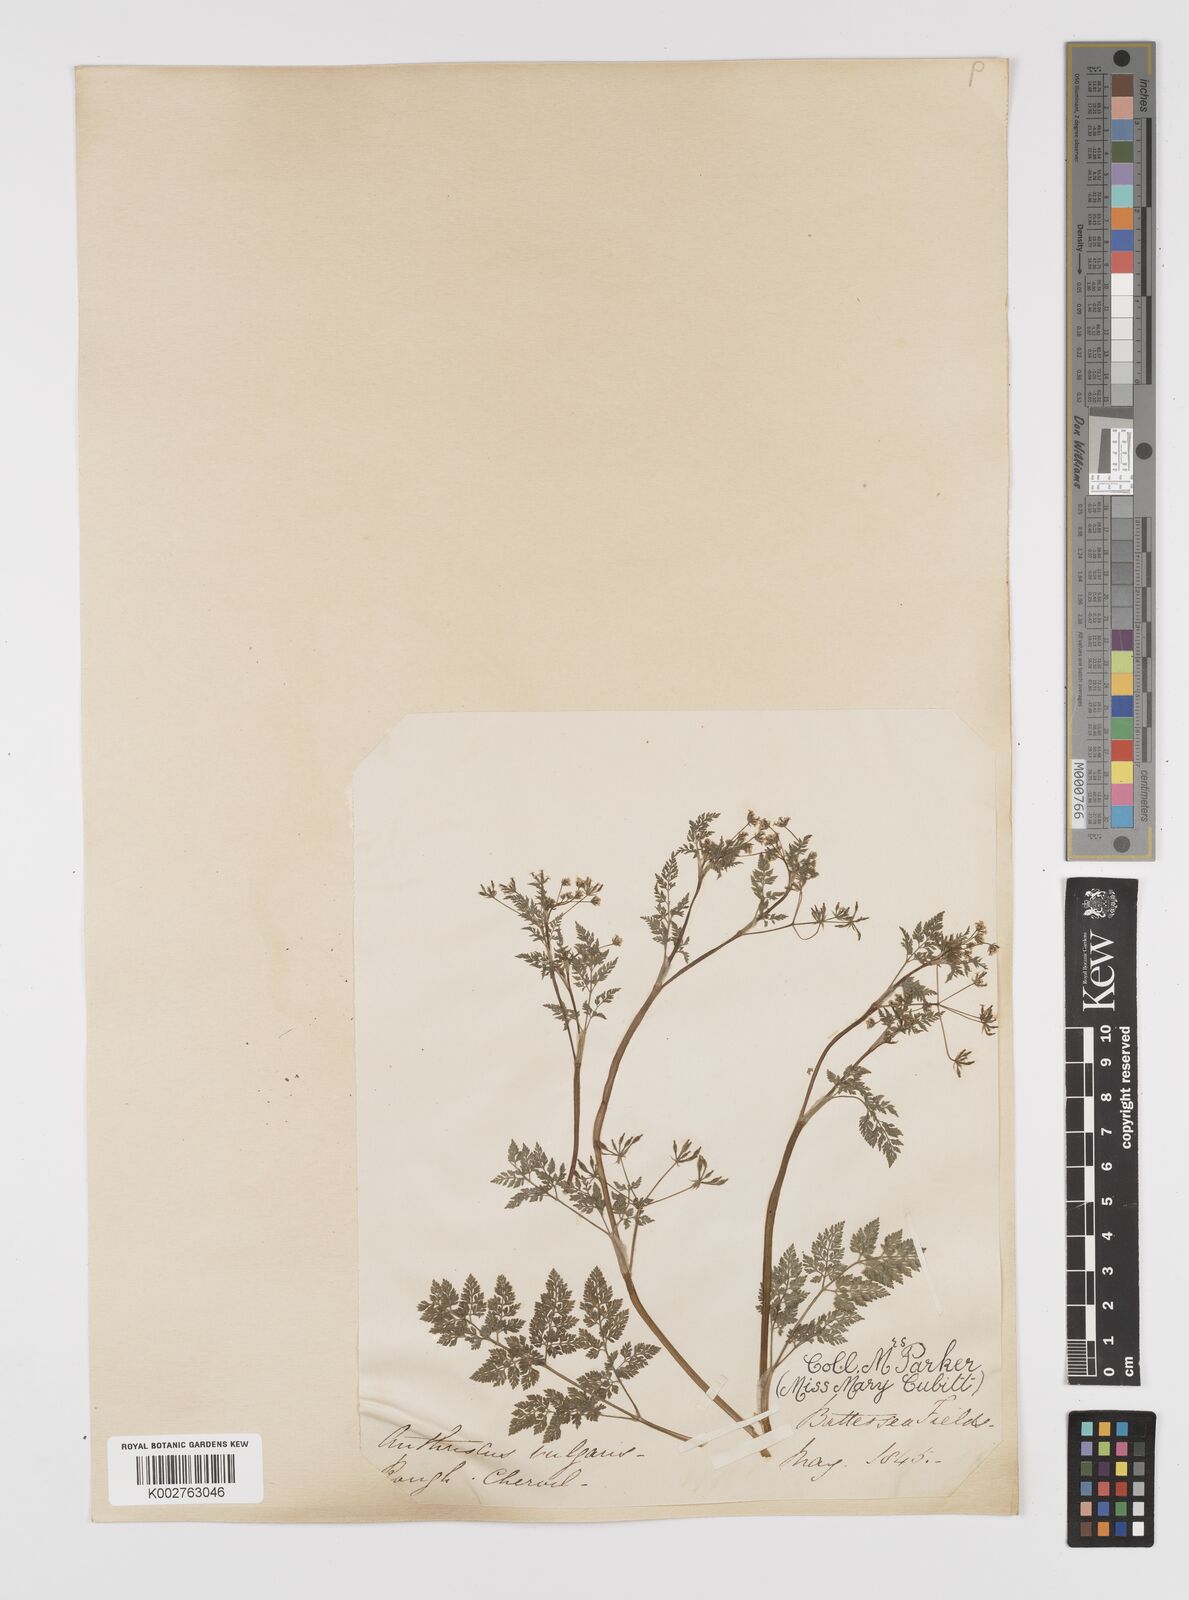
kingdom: Plantae
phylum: Tracheophyta
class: Magnoliopsida
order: Apiales
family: Apiaceae
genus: Anthriscus
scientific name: Anthriscus caucalis
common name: Bur chervil
